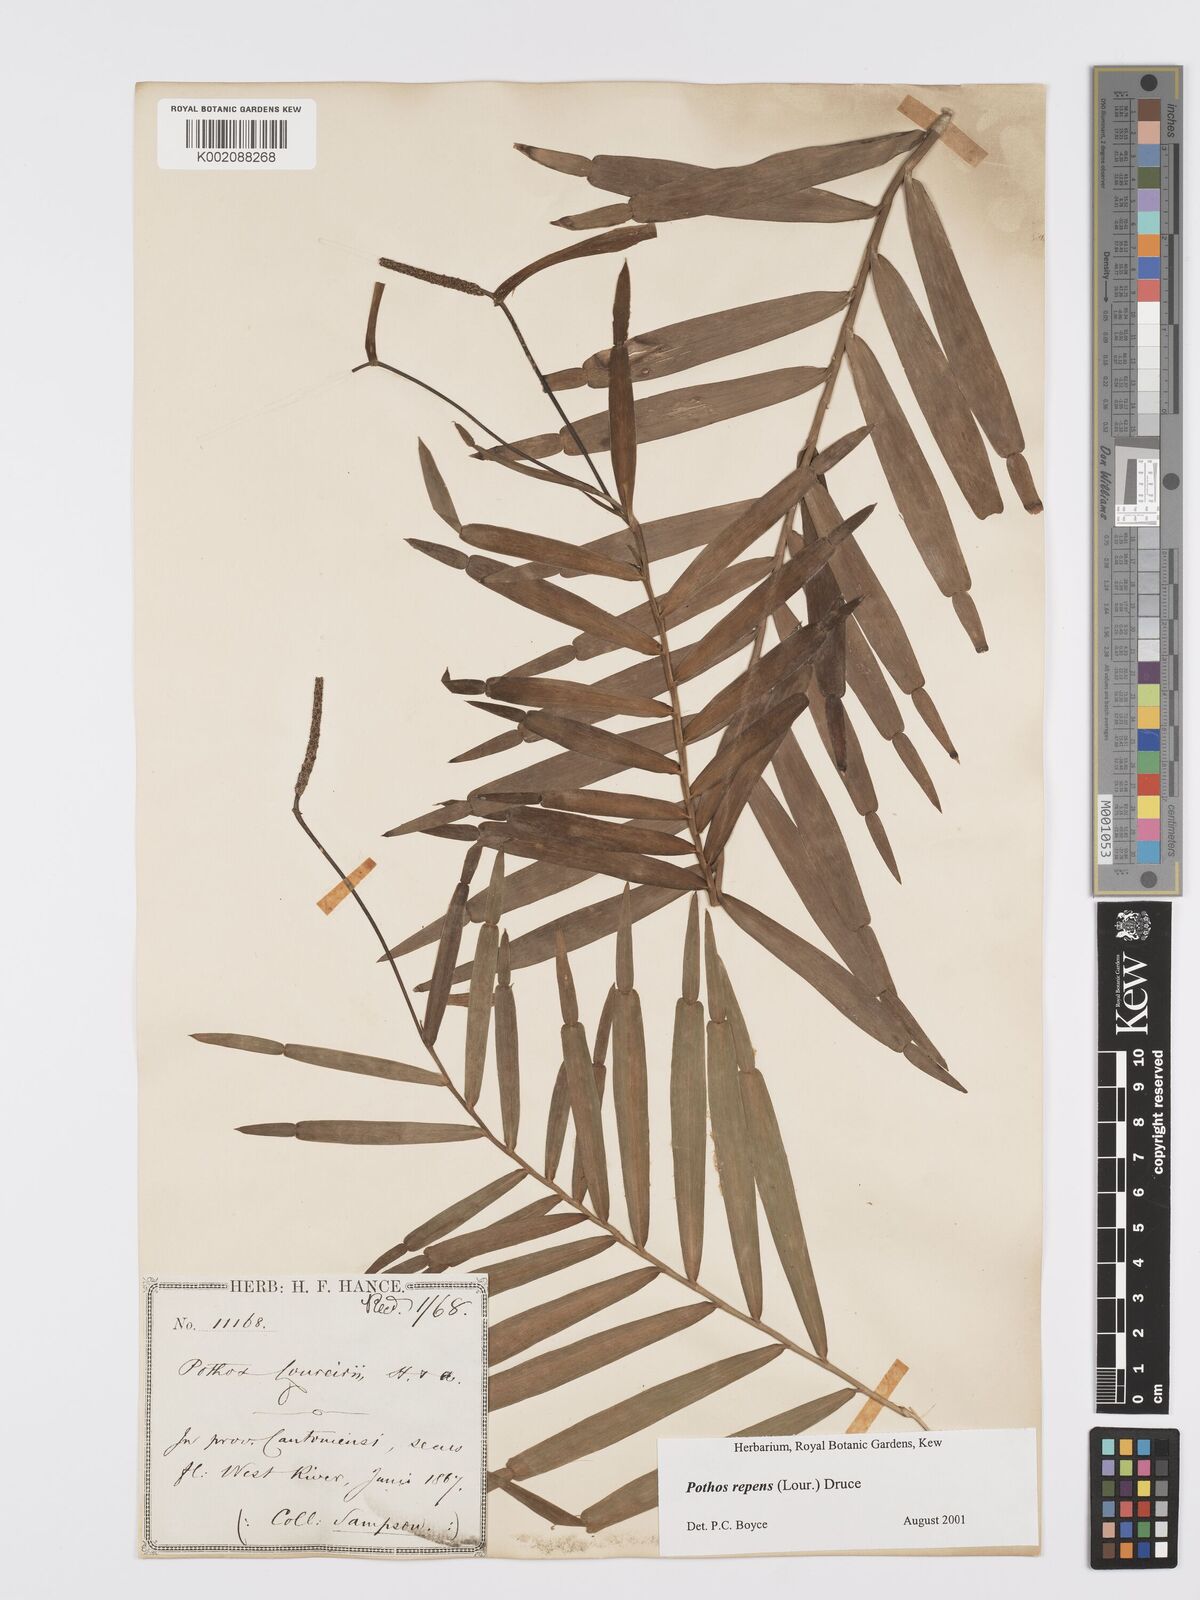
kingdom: Plantae
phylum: Tracheophyta
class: Liliopsida
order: Alismatales
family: Araceae
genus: Pothos
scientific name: Pothos repens
